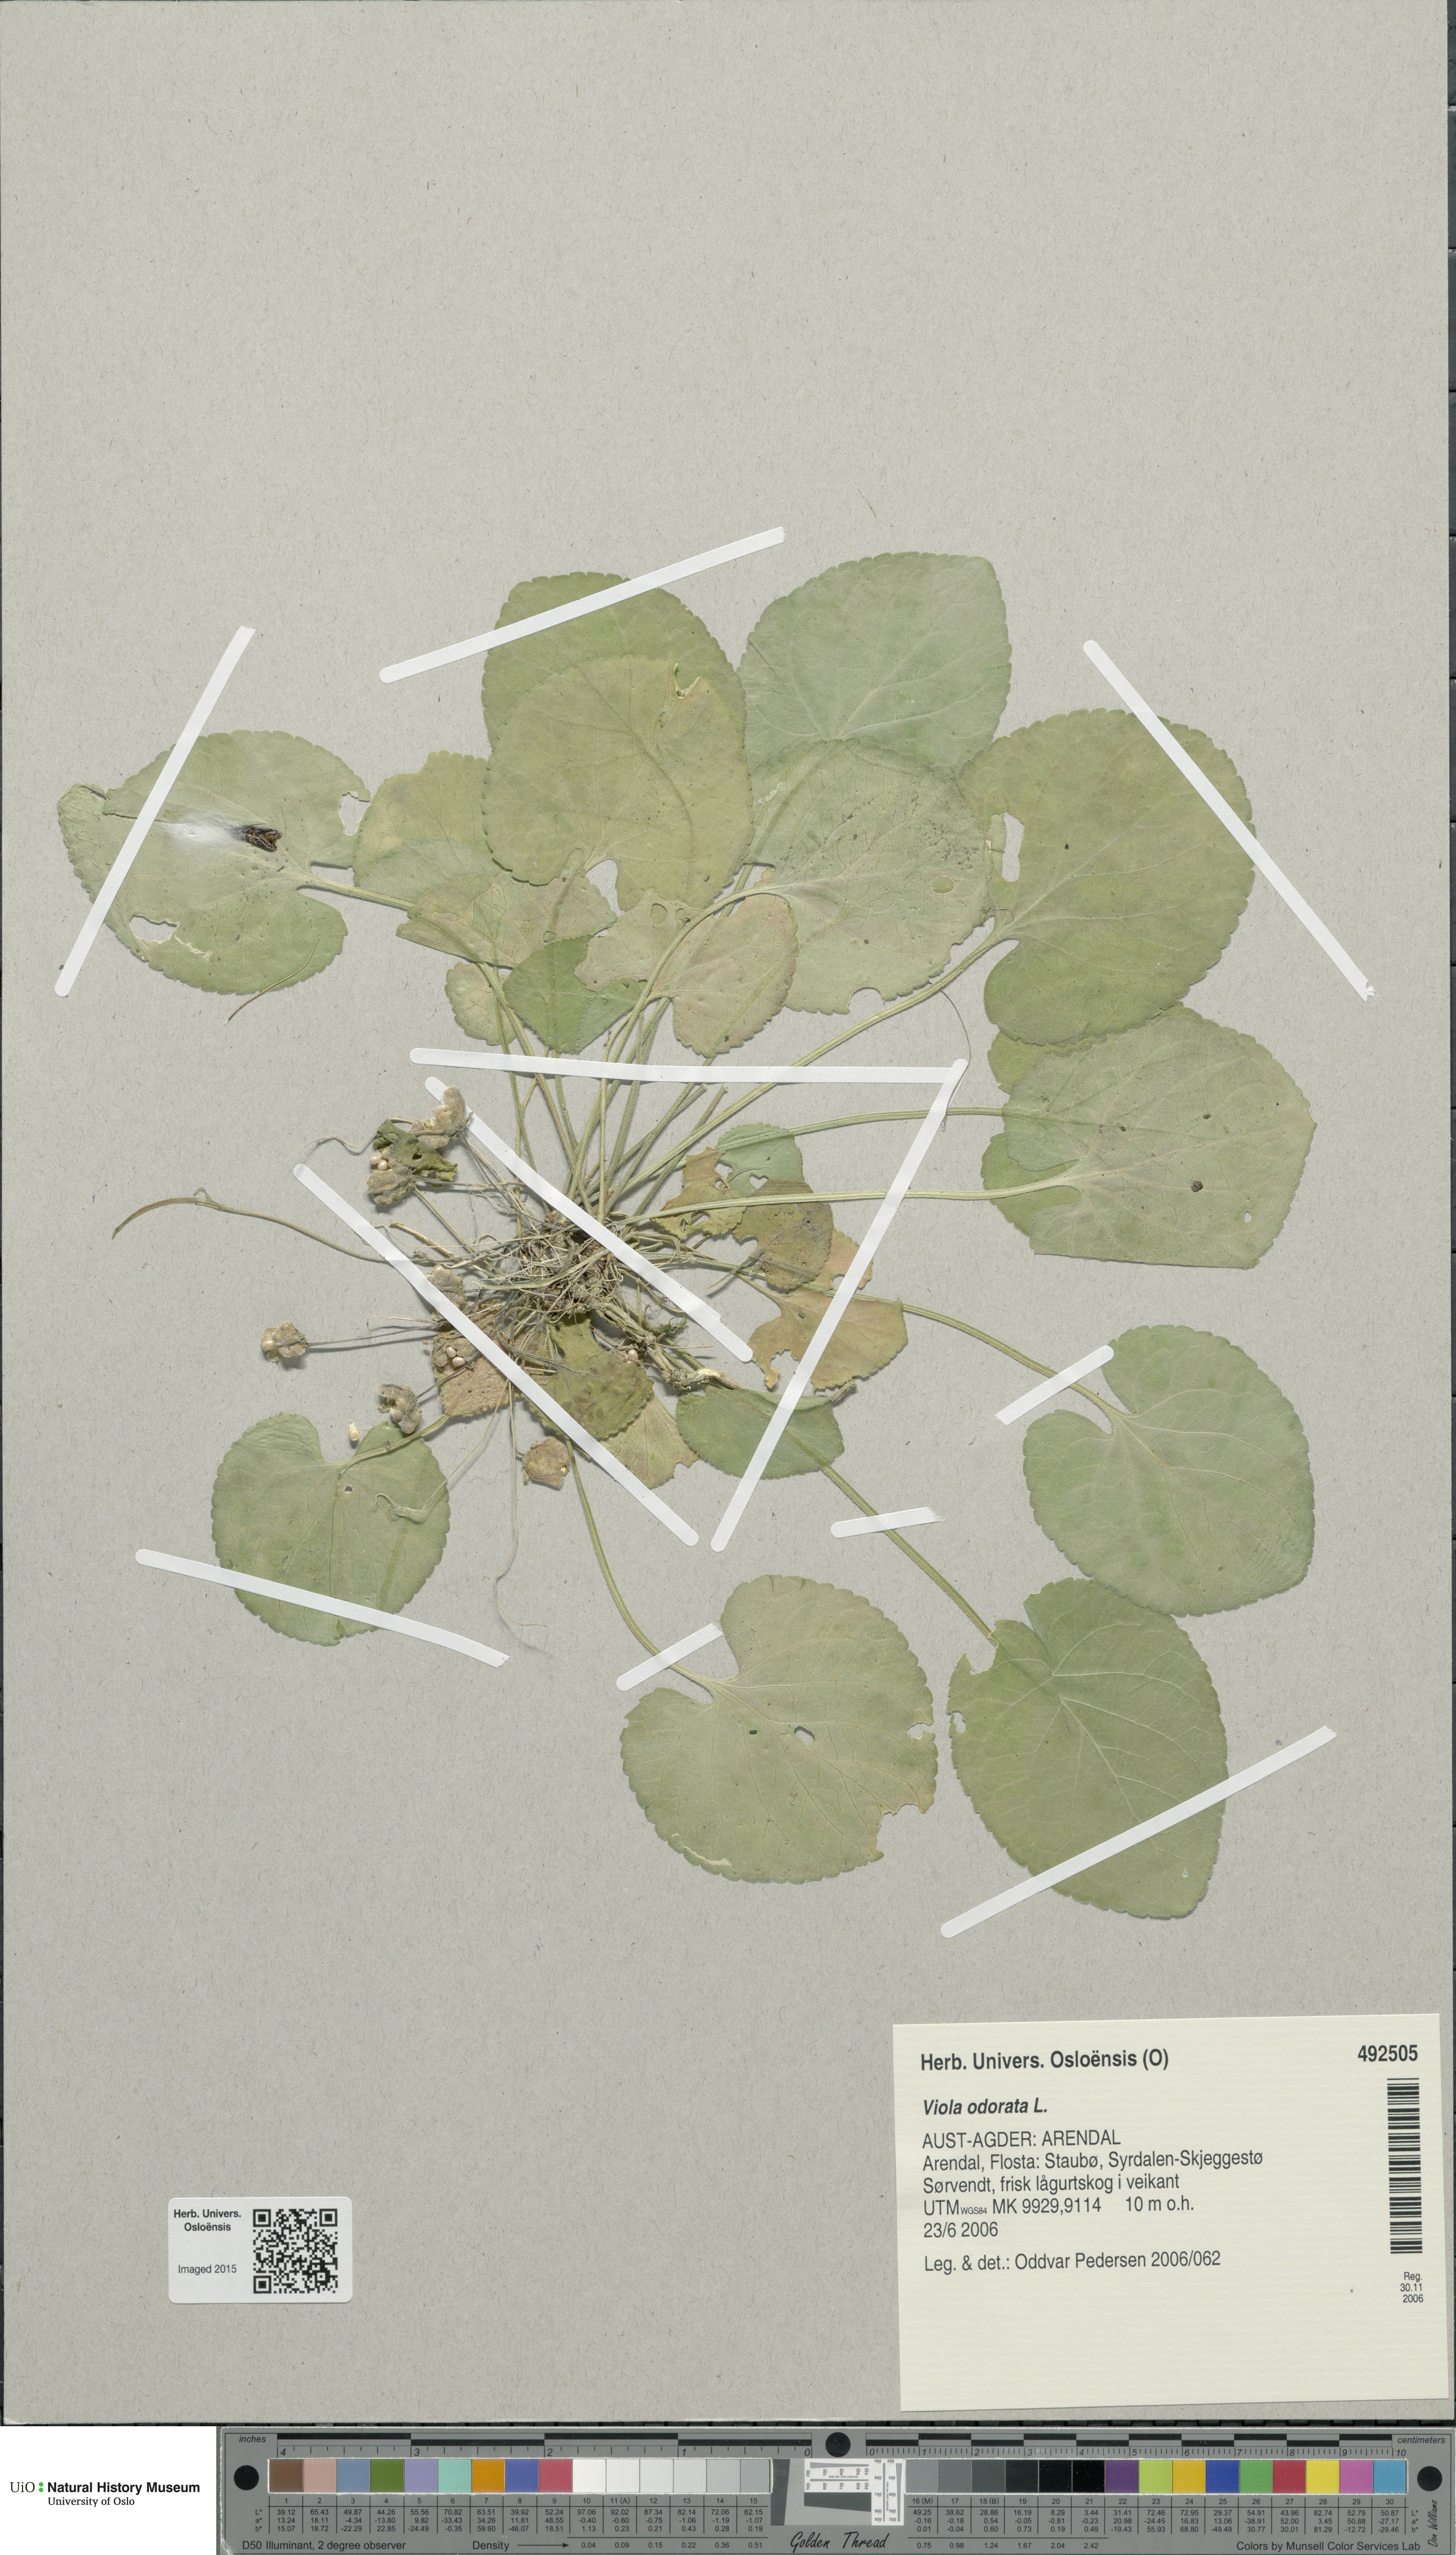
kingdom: Plantae
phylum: Tracheophyta
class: Magnoliopsida
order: Malpighiales
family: Violaceae
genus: Viola
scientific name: Viola odorata
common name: Sweet violet
